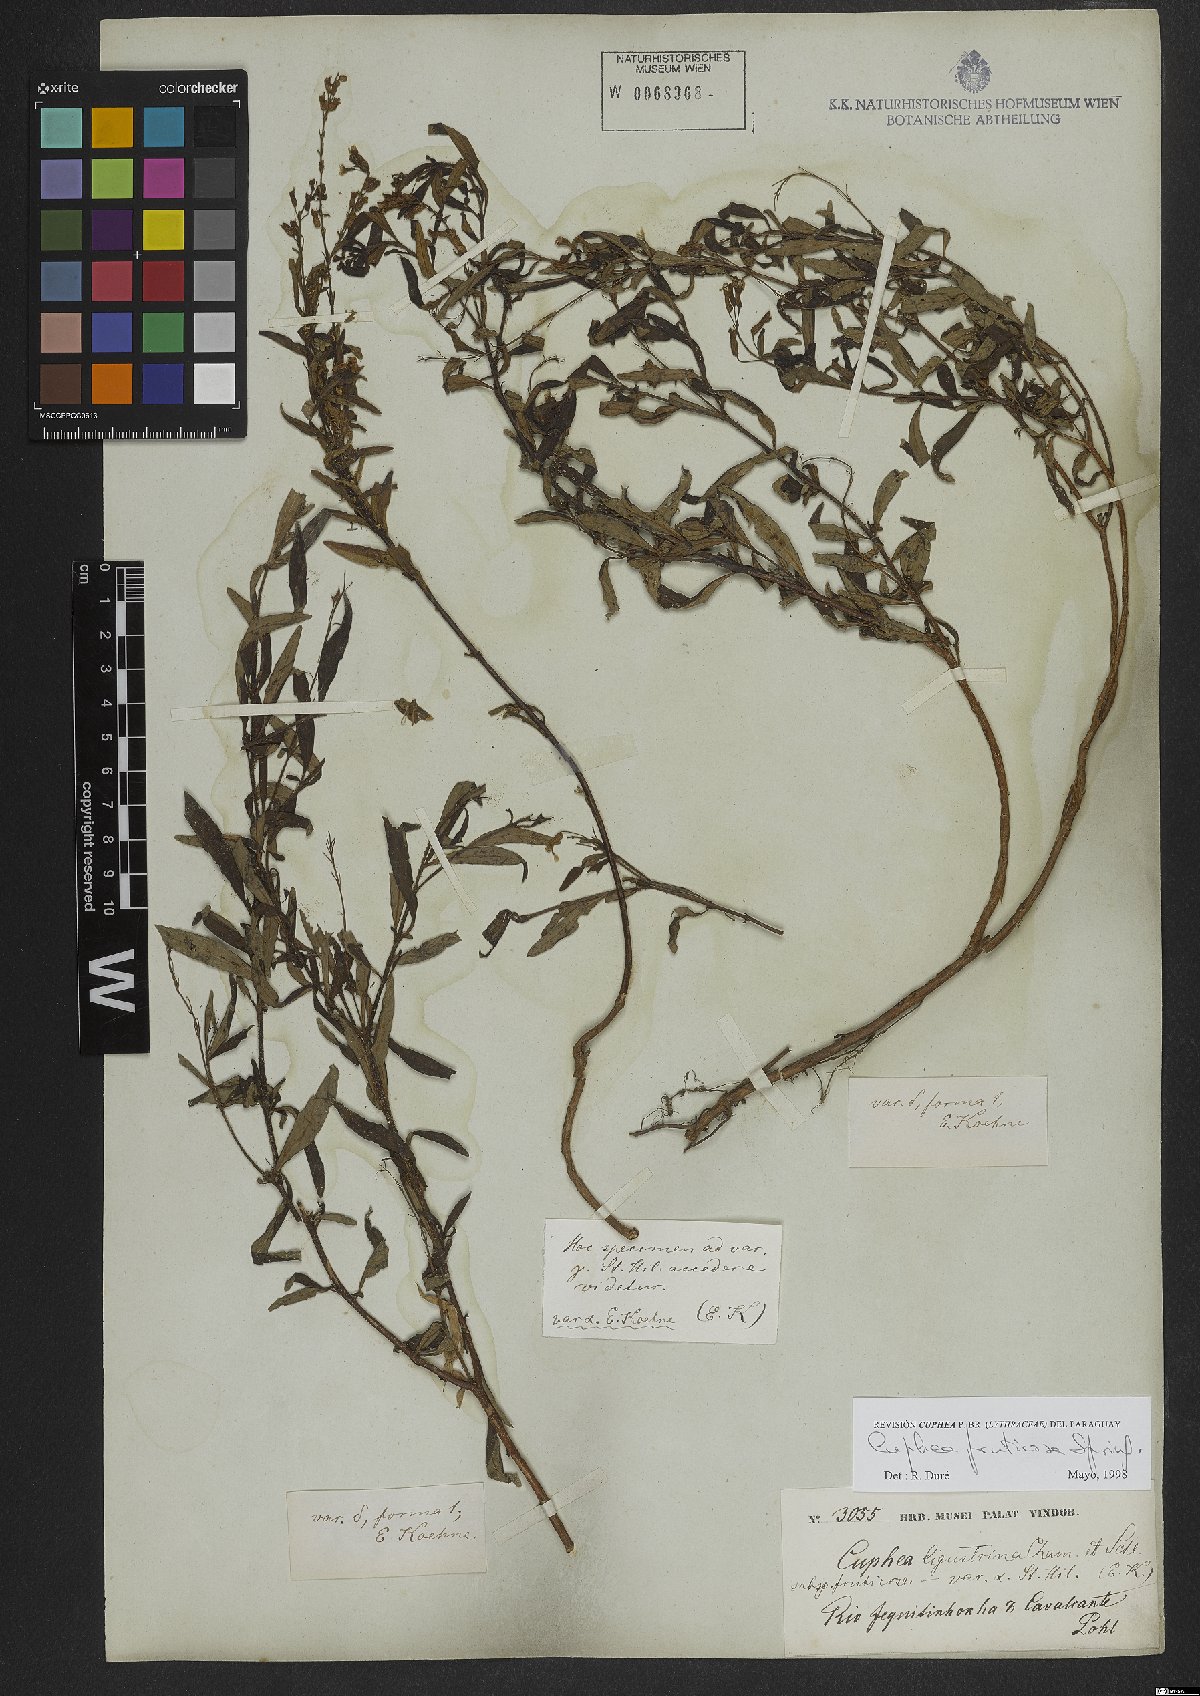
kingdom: Plantae
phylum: Tracheophyta
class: Magnoliopsida
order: Myrtales
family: Lythraceae
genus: Cuphea
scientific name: Cuphea fruticosa
